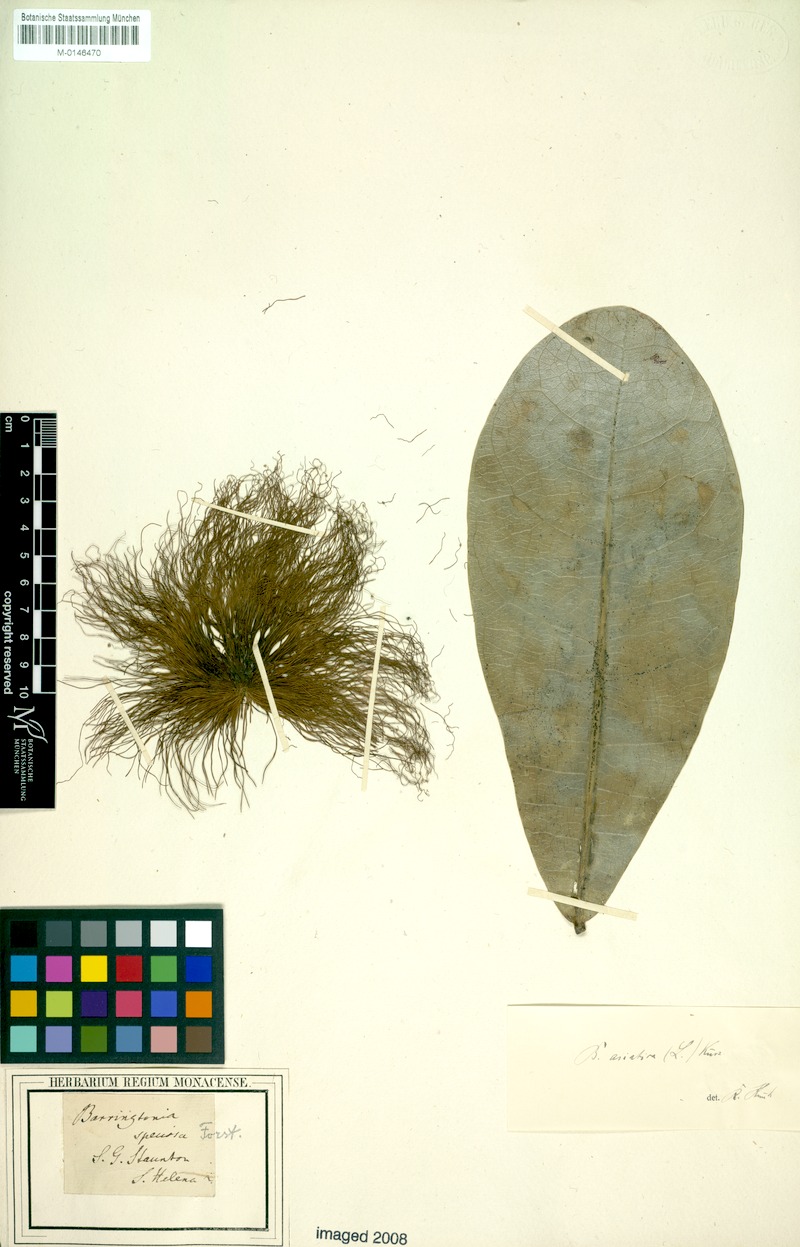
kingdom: Plantae
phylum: Tracheophyta
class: Magnoliopsida
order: Ericales
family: Lecythidaceae
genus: Barringtonia
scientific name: Barringtonia asiatica
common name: Mango-pine
